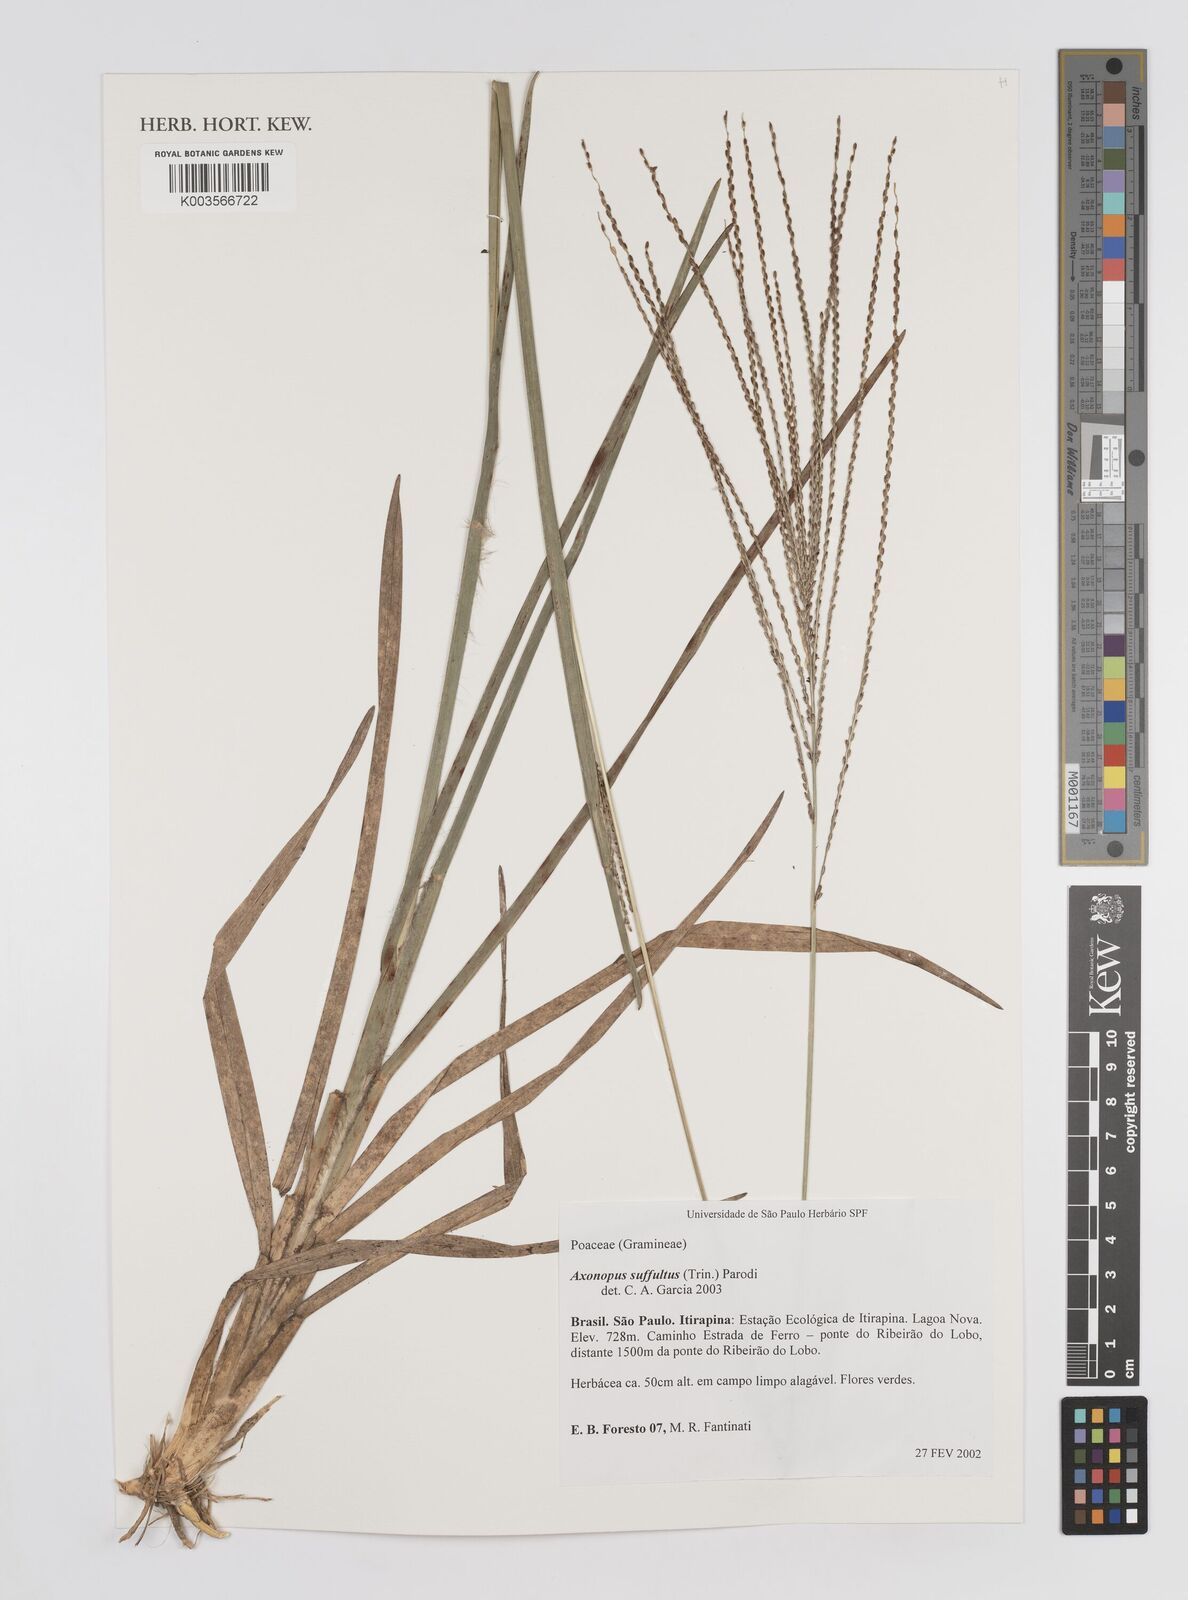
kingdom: Plantae
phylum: Tracheophyta
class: Liliopsida
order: Poales
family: Poaceae
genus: Axonopus
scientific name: Axonopus suffultus
